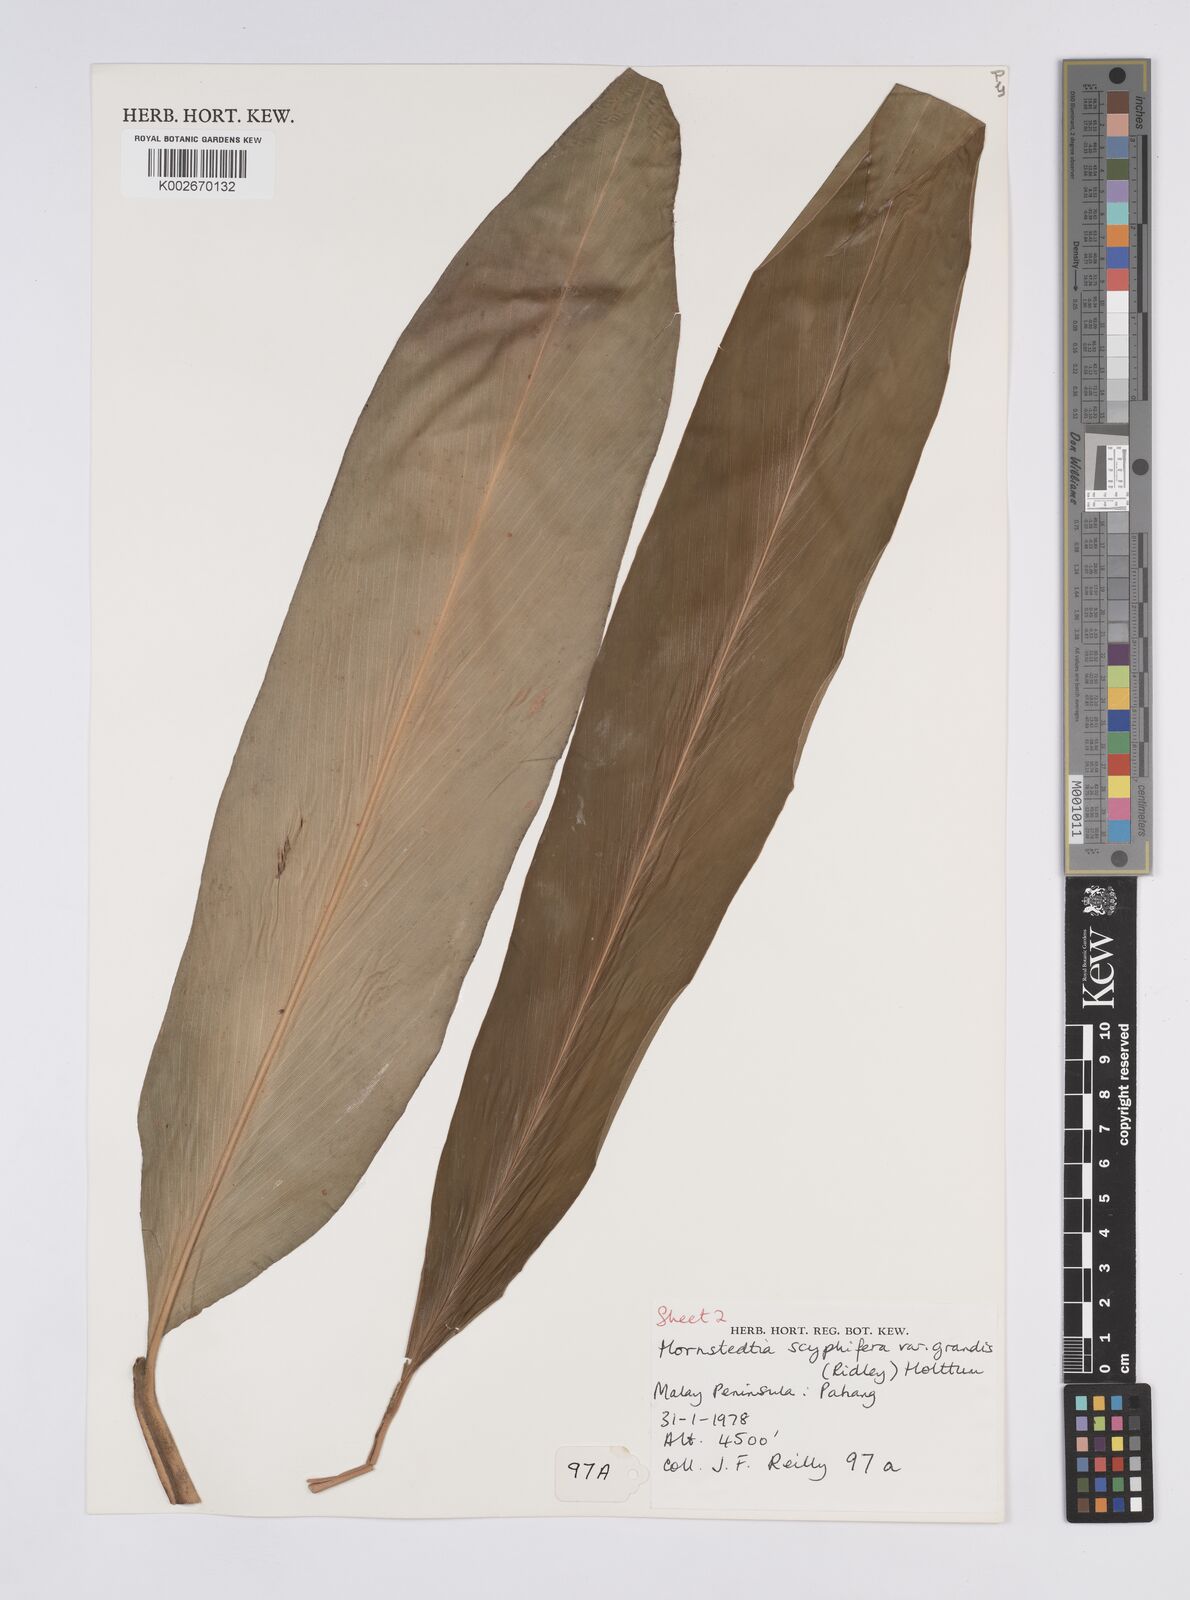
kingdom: Plantae
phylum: Tracheophyta
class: Liliopsida
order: Zingiberales
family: Zingiberaceae
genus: Hornstedtia
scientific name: Hornstedtia scyphifera
